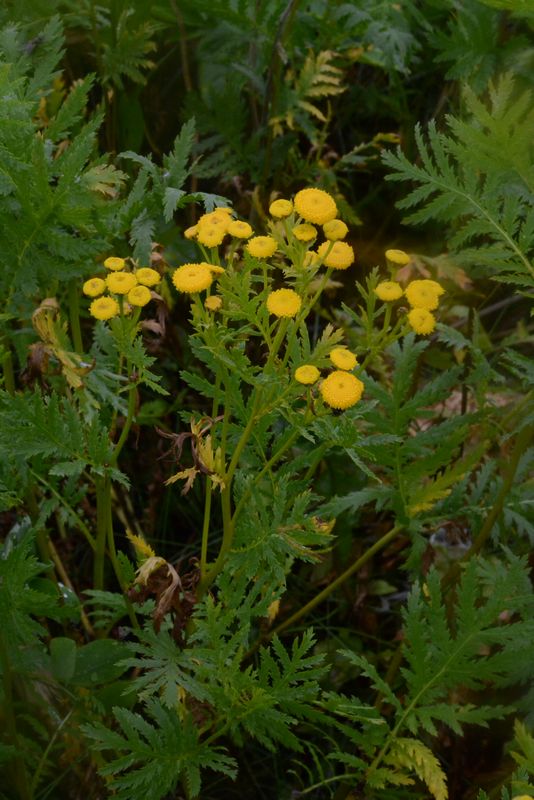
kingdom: Plantae
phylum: Tracheophyta
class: Magnoliopsida
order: Asterales
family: Asteraceae
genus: Tanacetum
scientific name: Tanacetum vulgare
